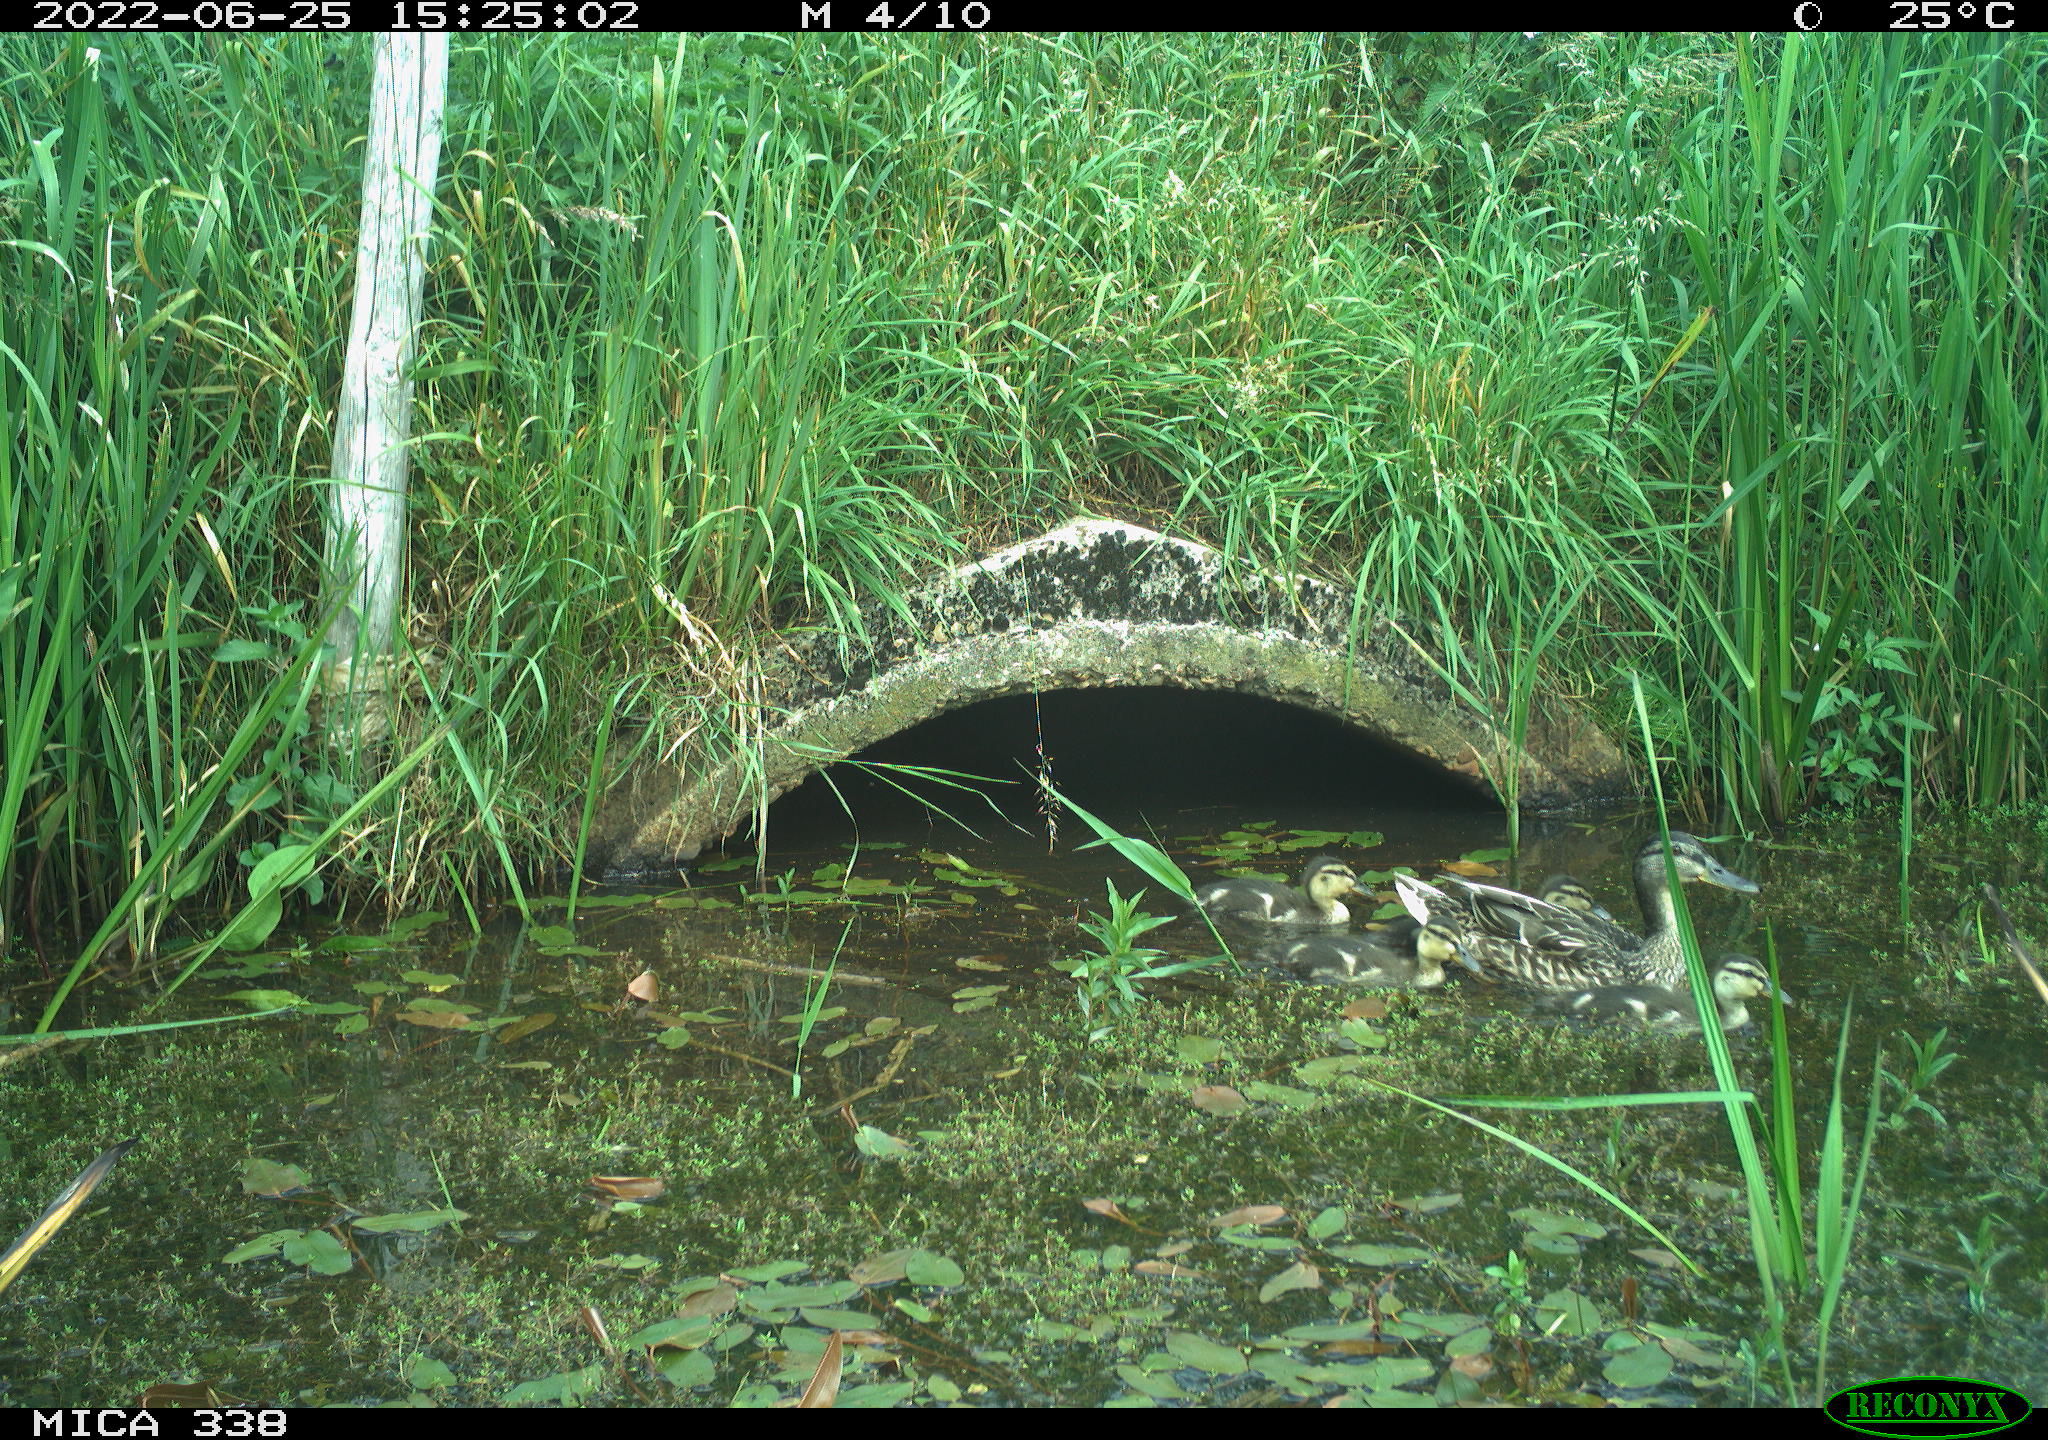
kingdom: Animalia
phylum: Chordata
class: Aves
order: Anseriformes
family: Anatidae
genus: Anas
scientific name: Anas platyrhynchos
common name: Mallard
